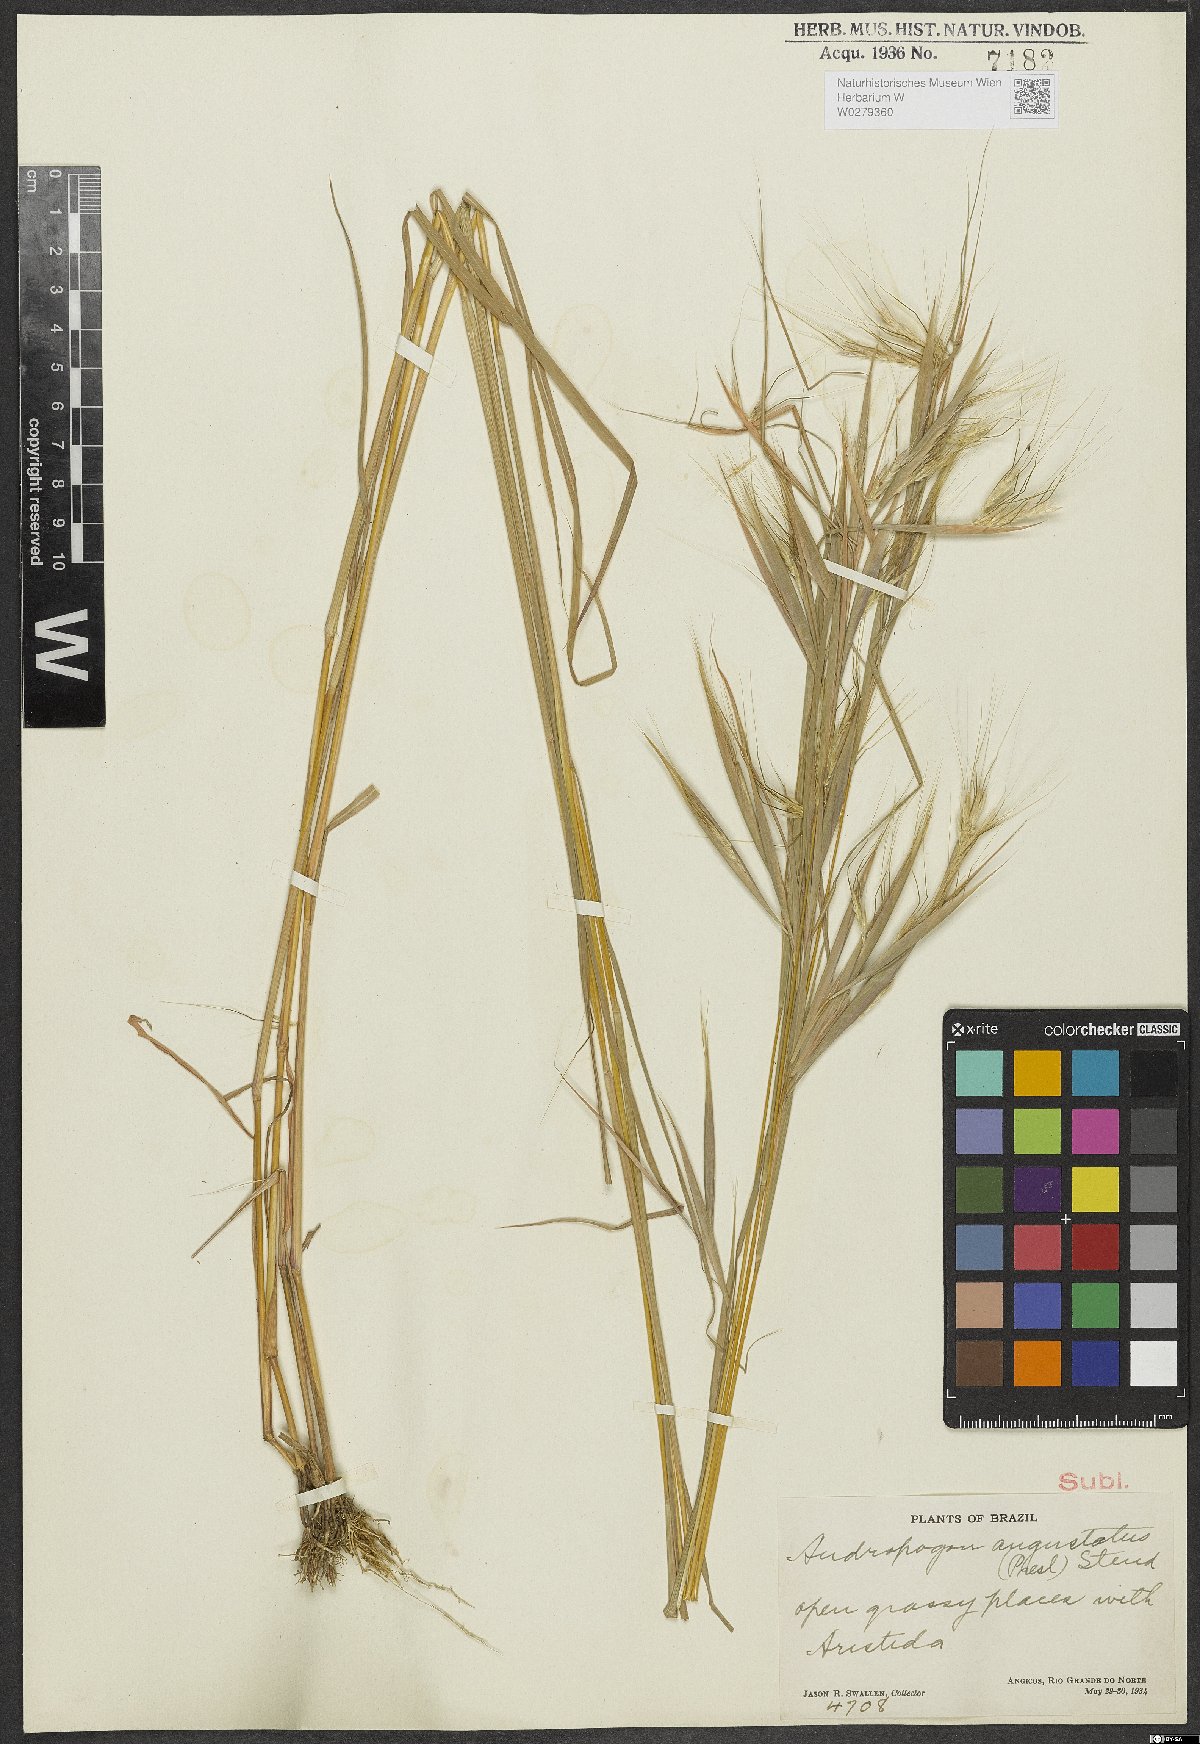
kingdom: Plantae
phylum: Tracheophyta
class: Liliopsida
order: Poales
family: Poaceae
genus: Andropogon
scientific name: Andropogon angustatus
